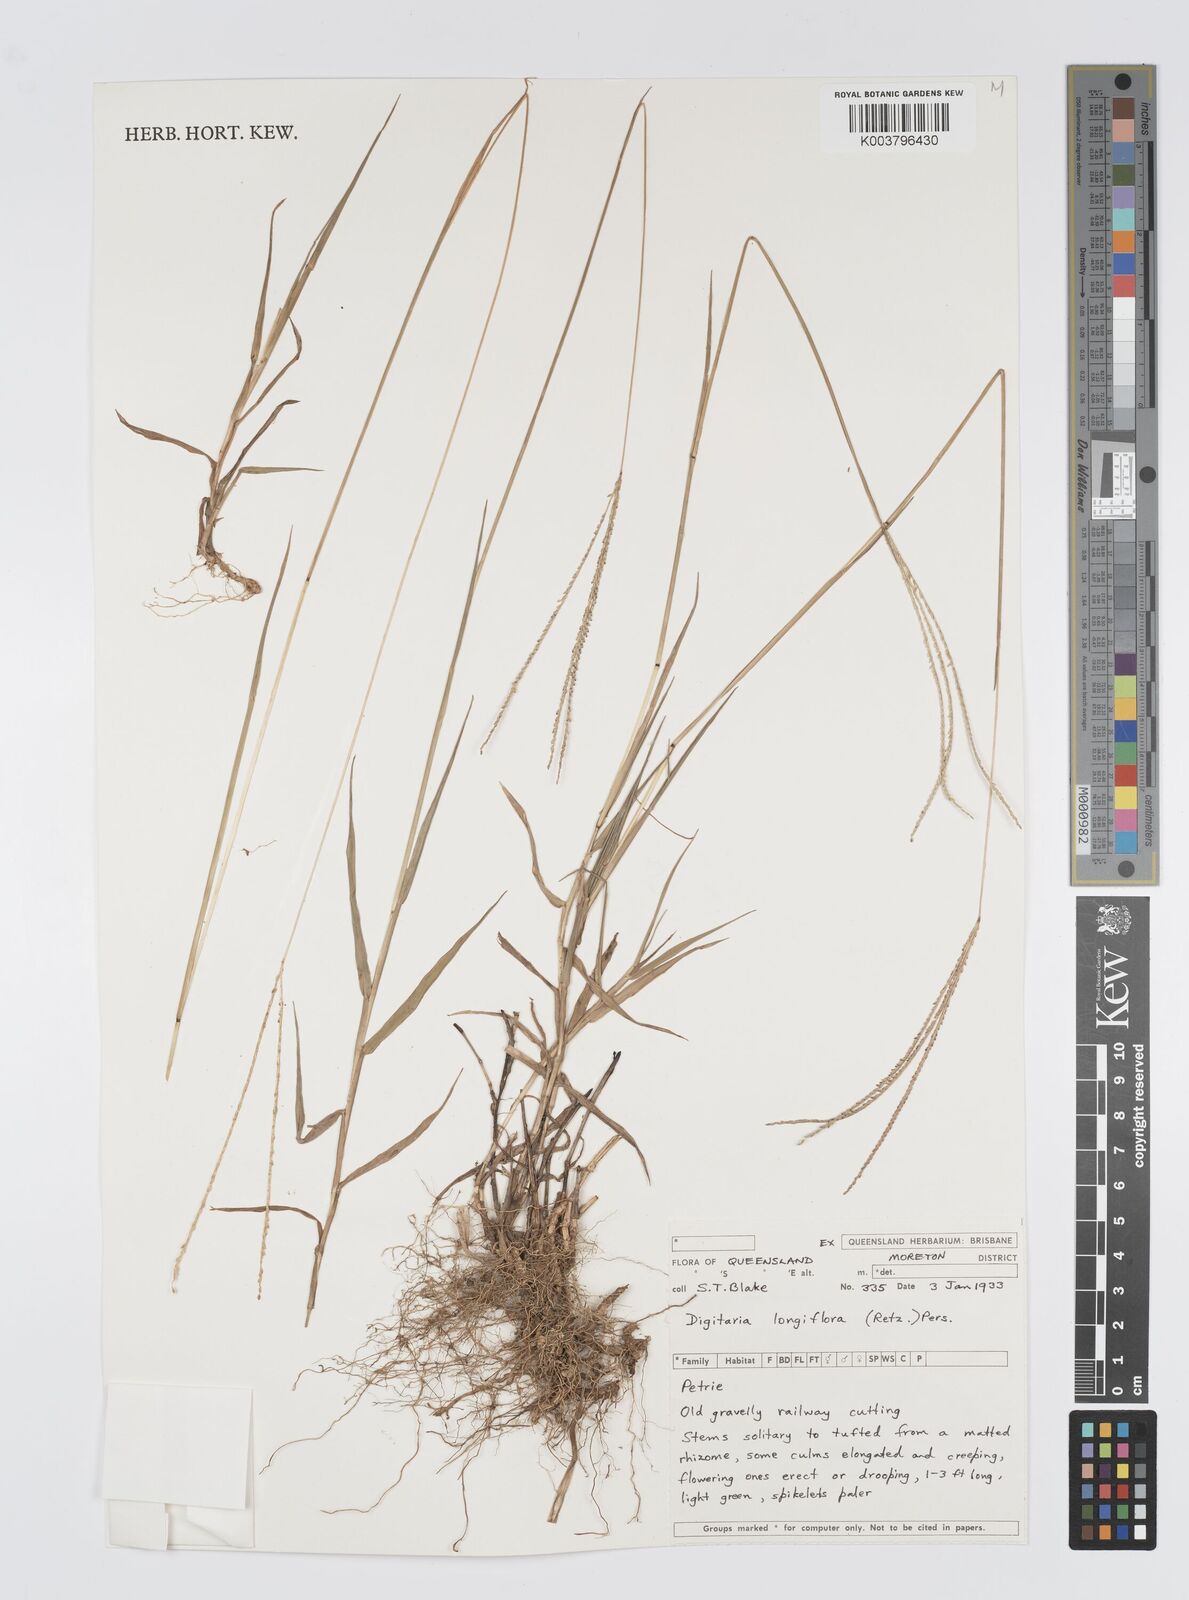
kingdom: Plantae
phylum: Tracheophyta
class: Liliopsida
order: Poales
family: Poaceae
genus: Digitaria
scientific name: Digitaria longiflora
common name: Wire crabgrass
